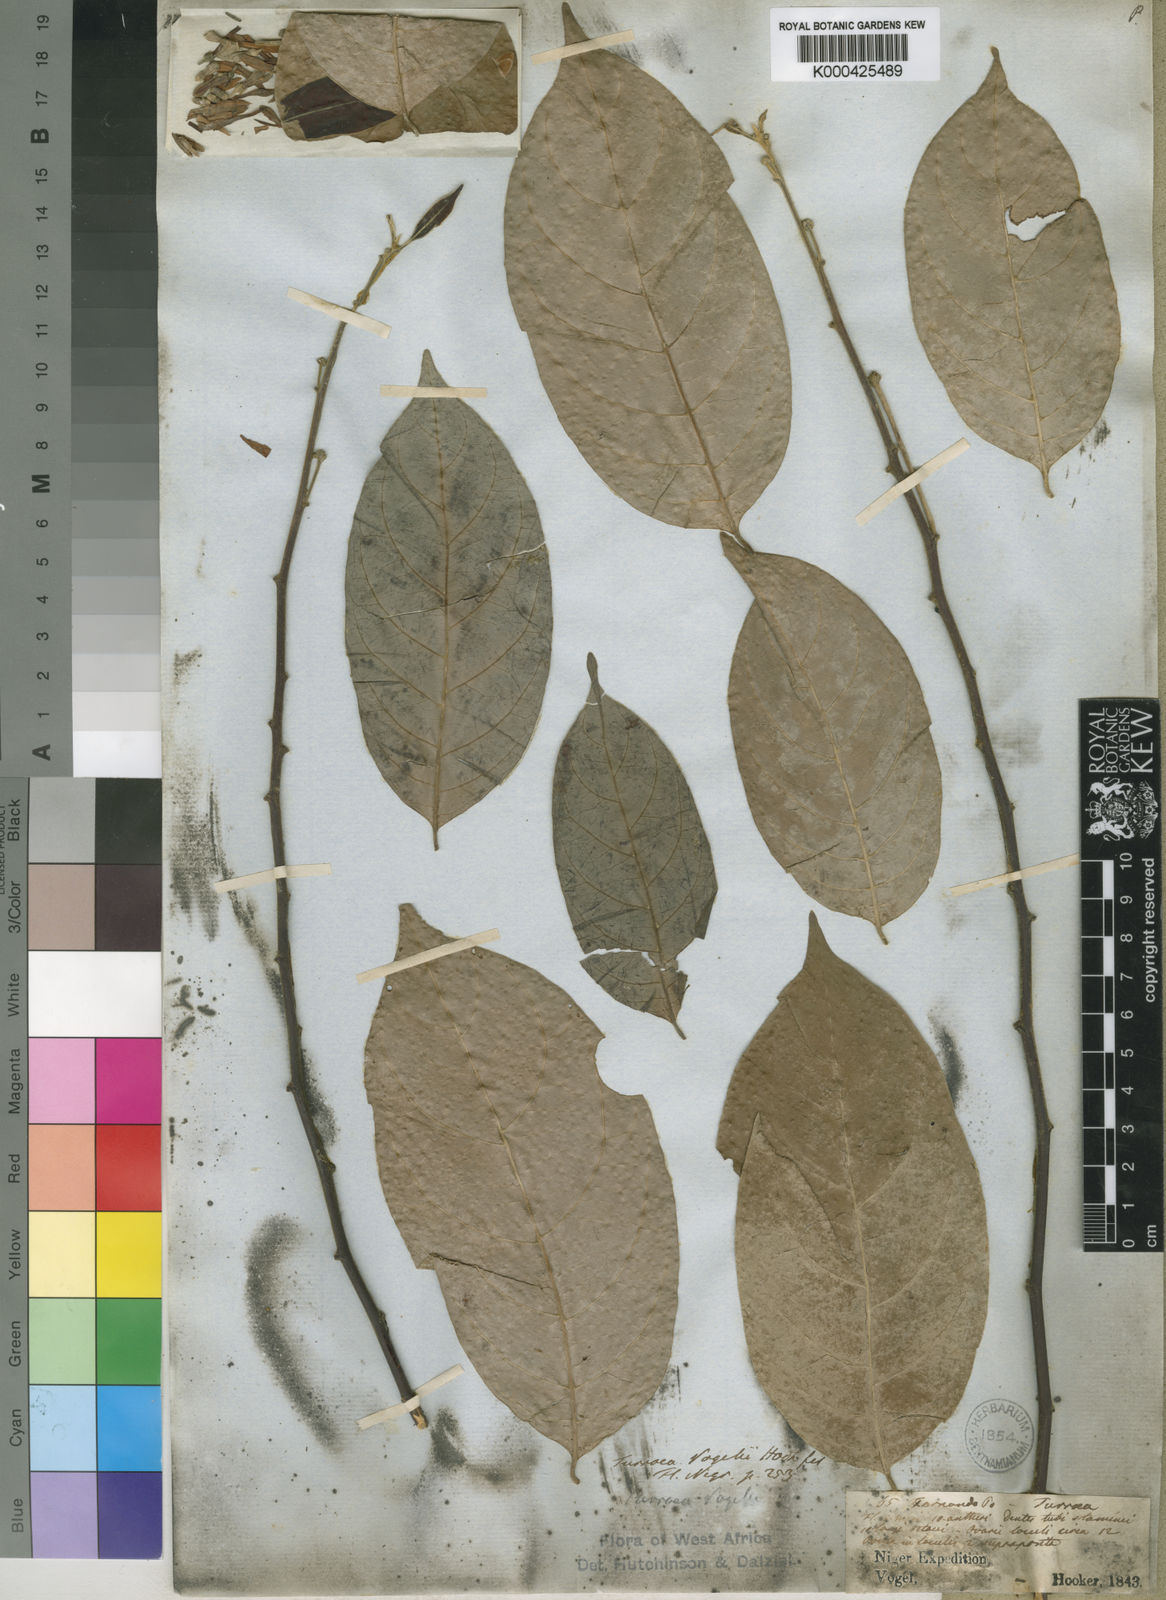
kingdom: Plantae
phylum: Tracheophyta
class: Magnoliopsida
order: Sapindales
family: Meliaceae
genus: Turraea
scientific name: Turraea
